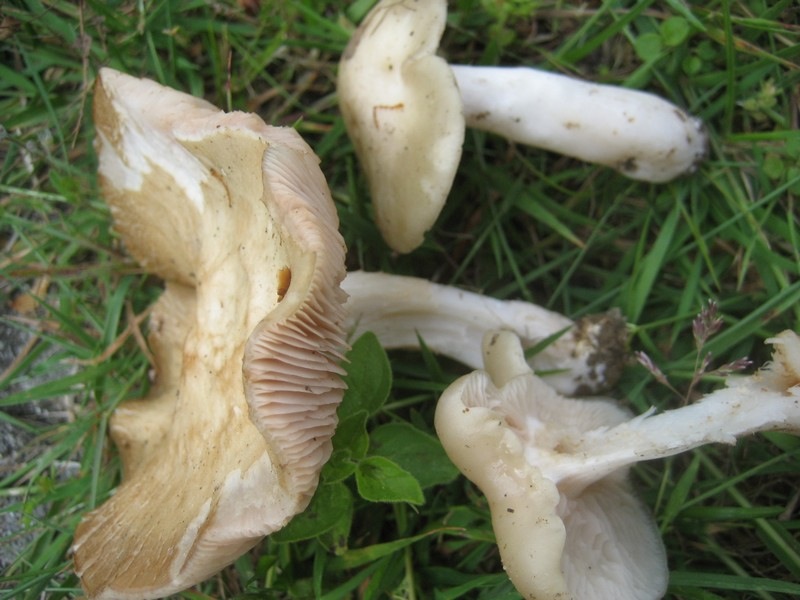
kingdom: Fungi
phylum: Basidiomycota
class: Agaricomycetes
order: Agaricales
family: Entolomataceae
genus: Entoloma
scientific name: Entoloma sepium
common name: slåen-rødblad
